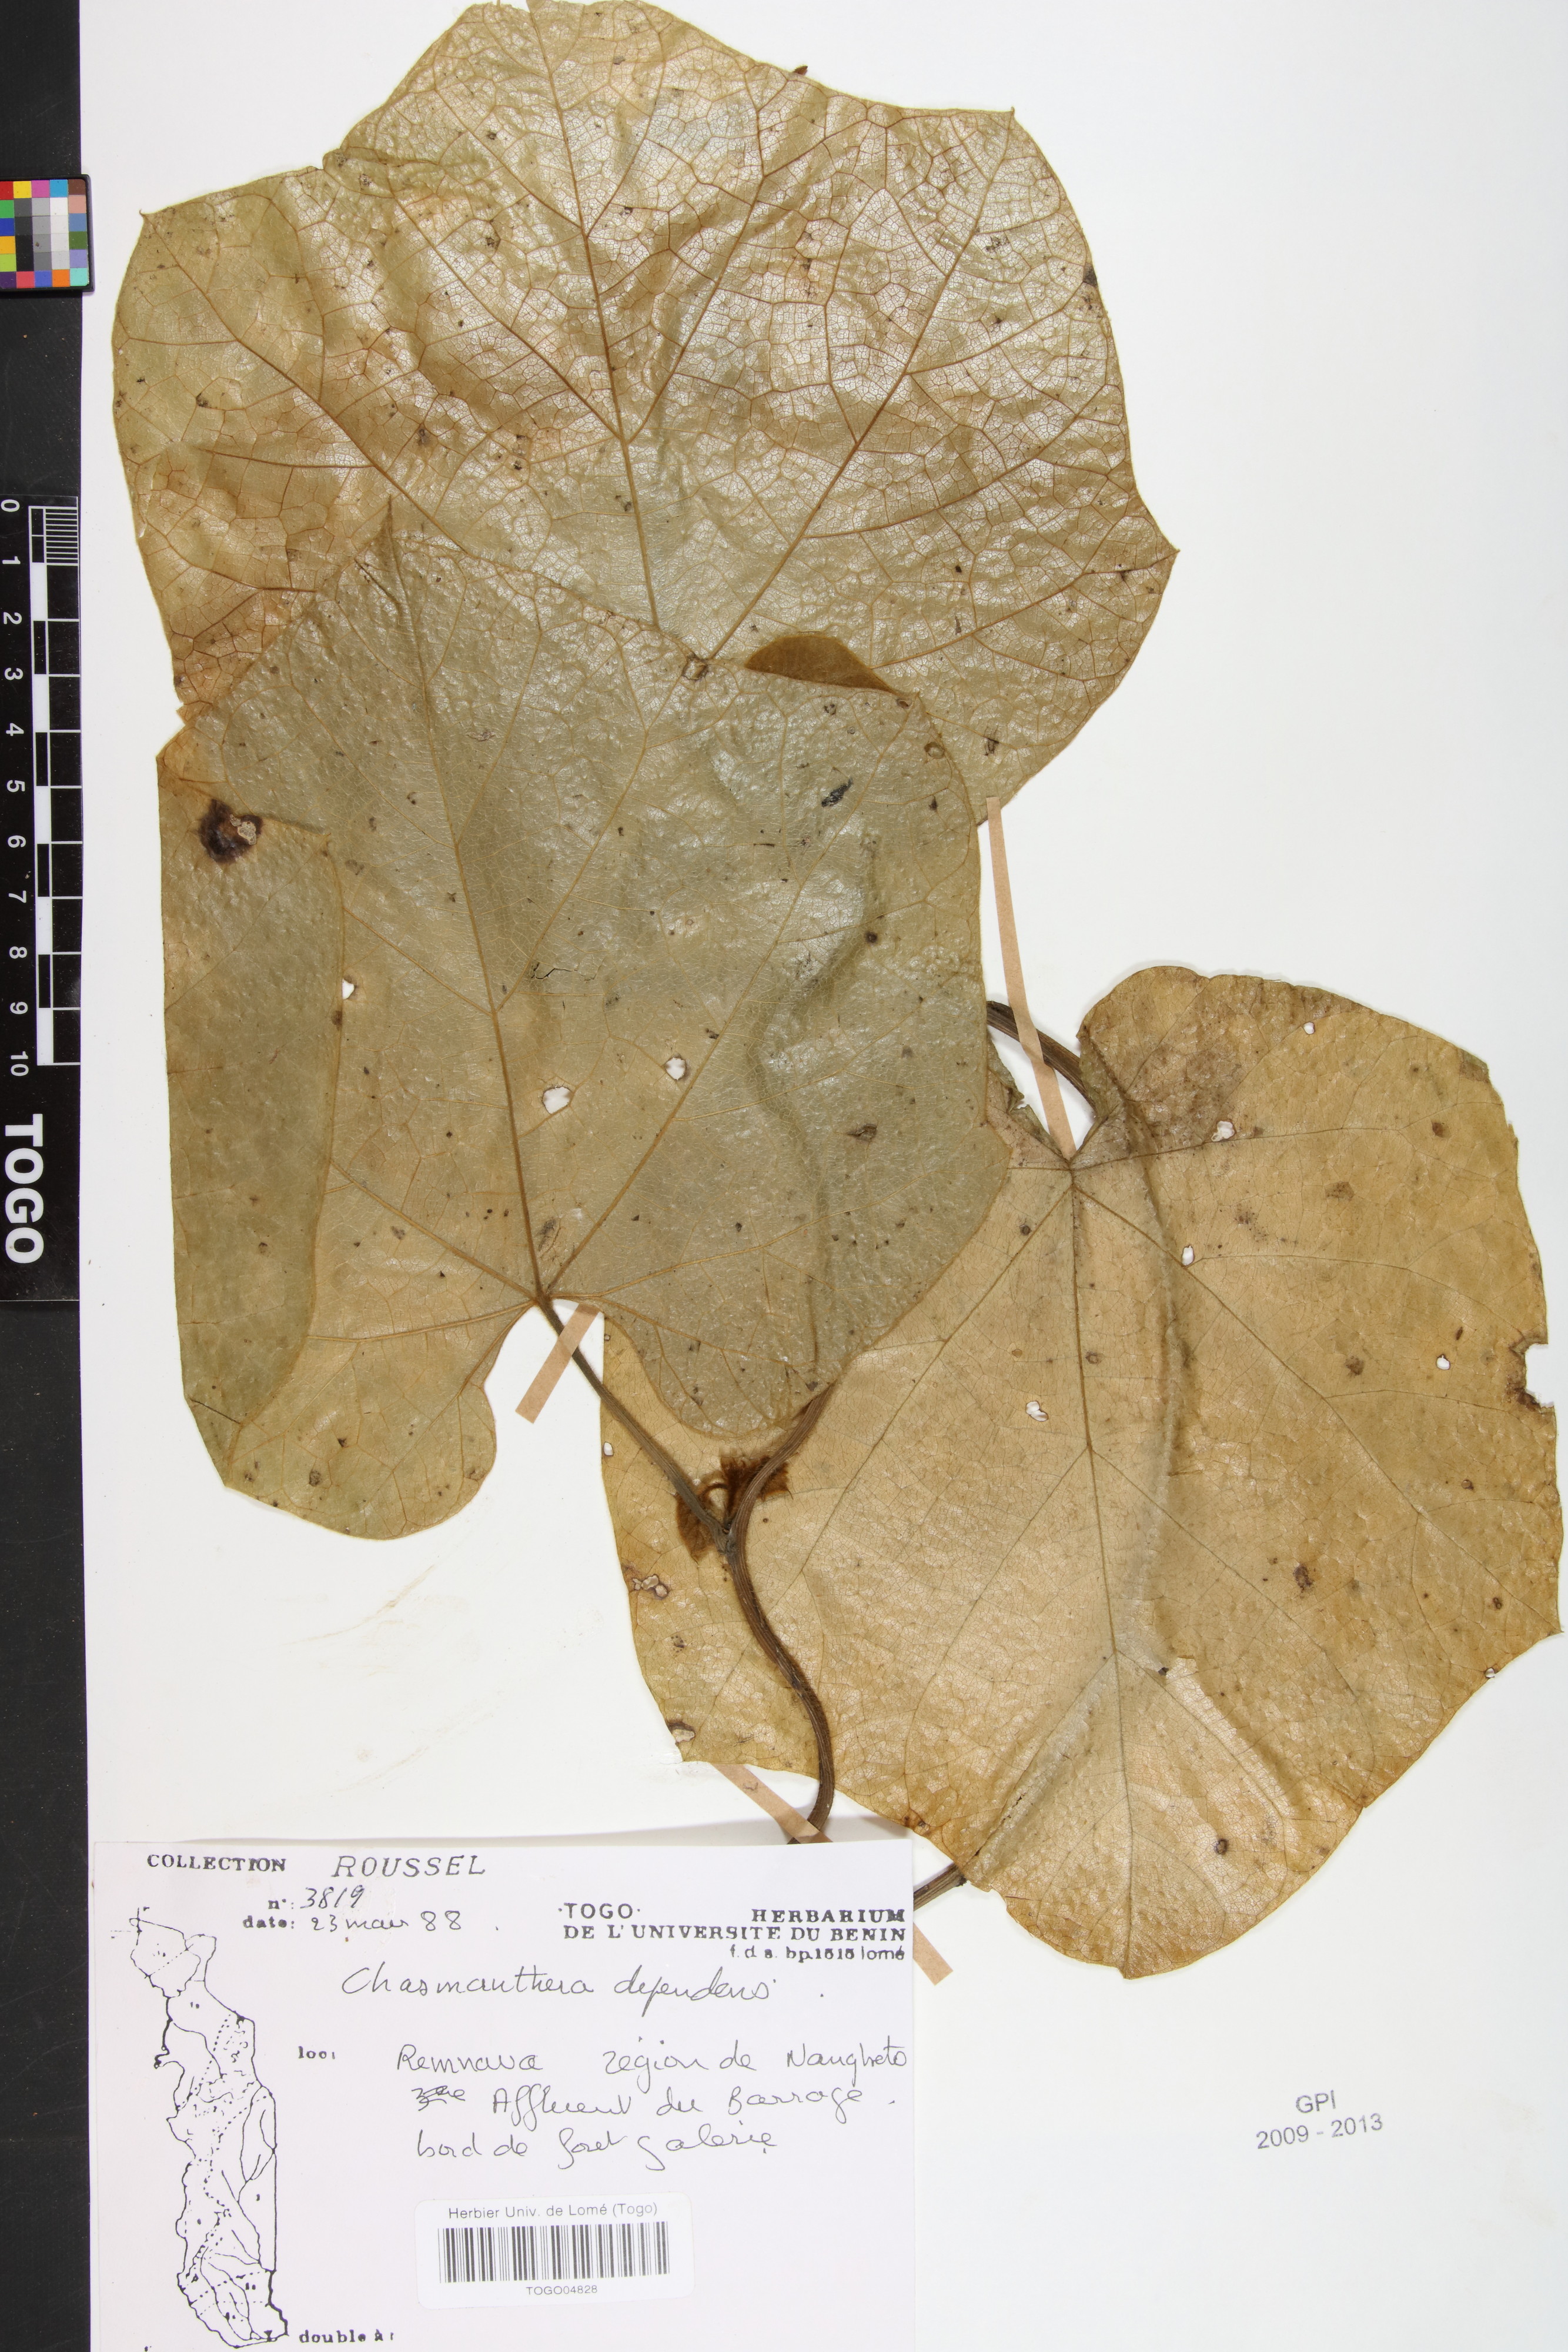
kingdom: Plantae
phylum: Tracheophyta
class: Magnoliopsida
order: Ranunculales
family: Menispermaceae
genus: Chasmanthera
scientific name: Chasmanthera dependens
